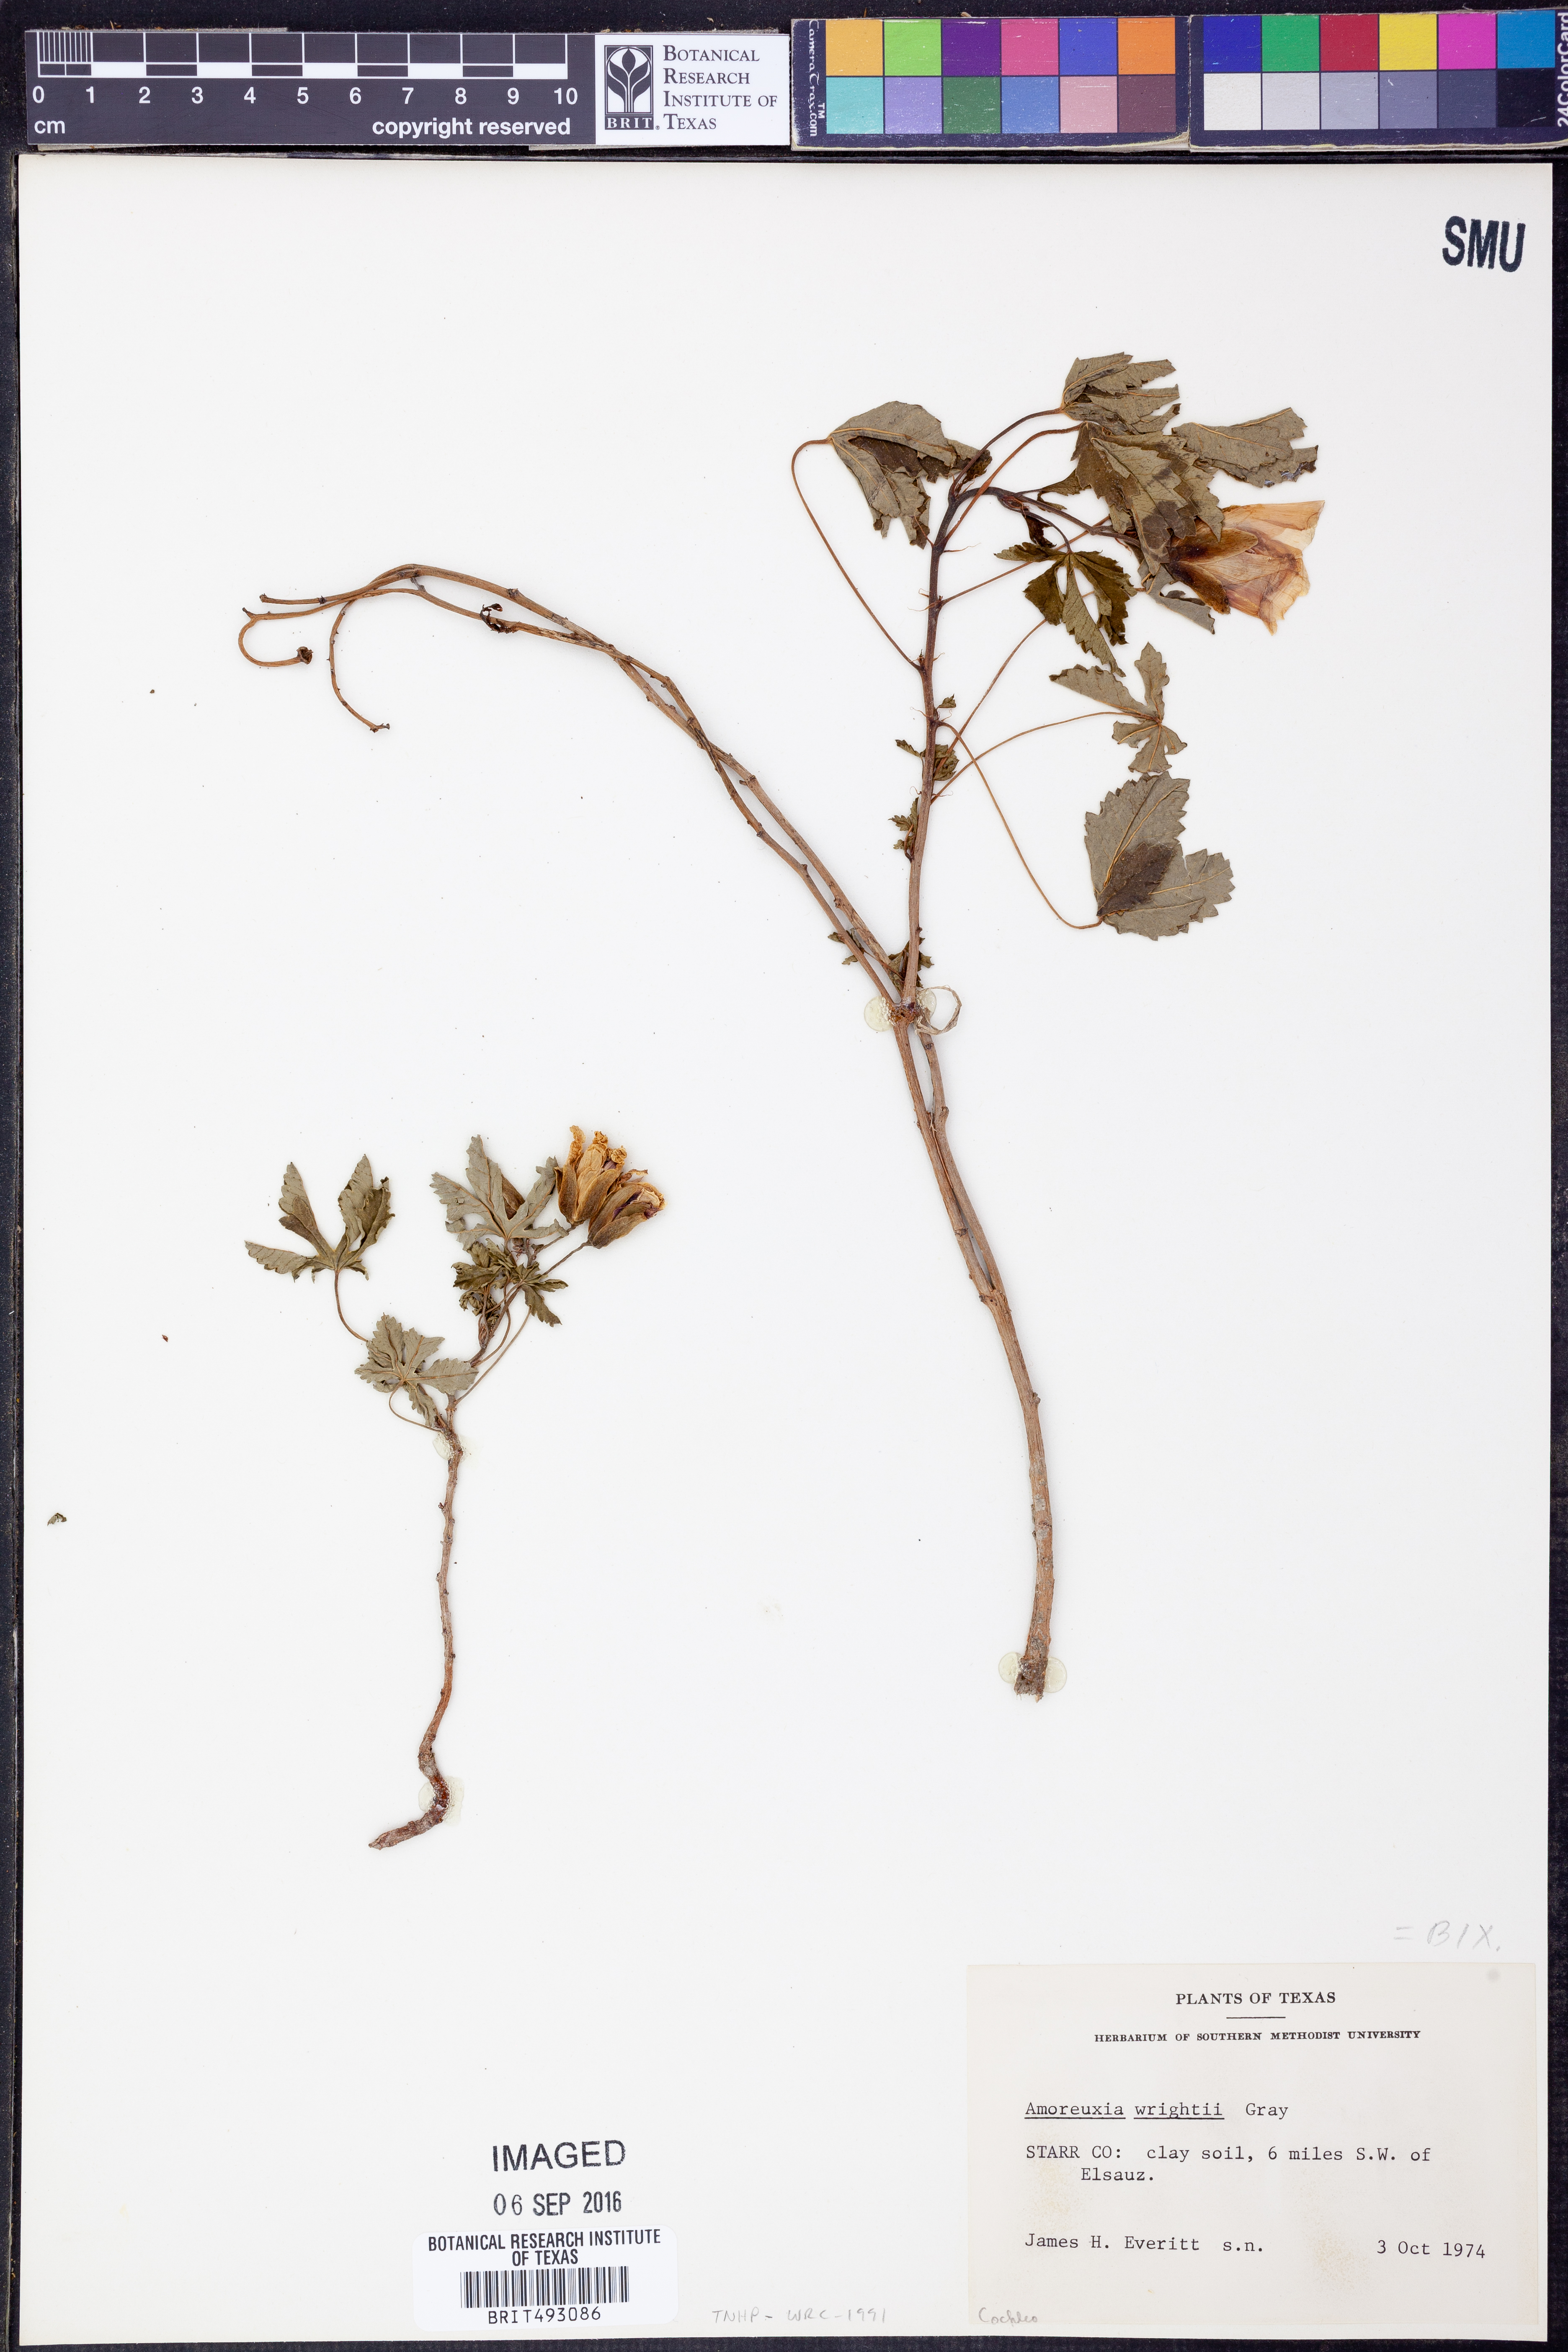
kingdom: Plantae
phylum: Tracheophyta
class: Magnoliopsida
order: Malvales
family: Cochlospermaceae
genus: Cochlospermum
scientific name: Cochlospermum wrightii
